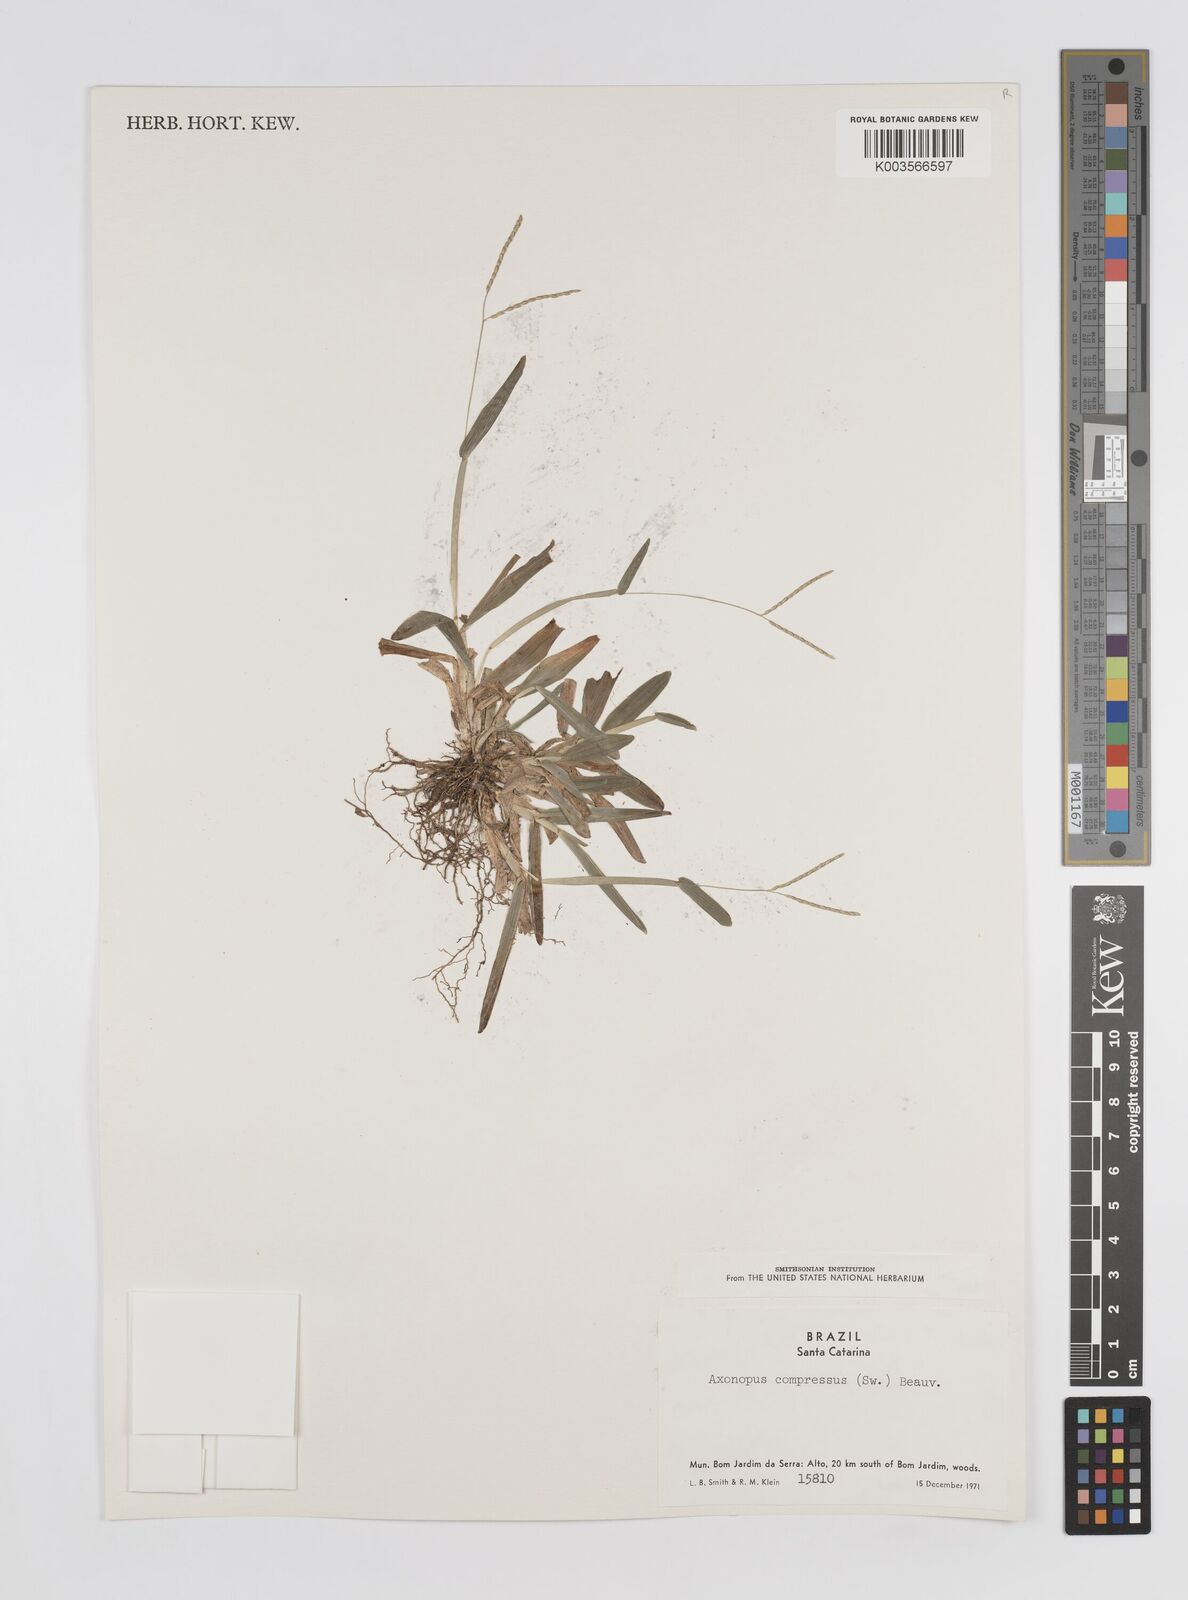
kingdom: Plantae
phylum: Tracheophyta
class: Liliopsida
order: Poales
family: Poaceae
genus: Axonopus
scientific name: Axonopus compressus
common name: American carpet grass
